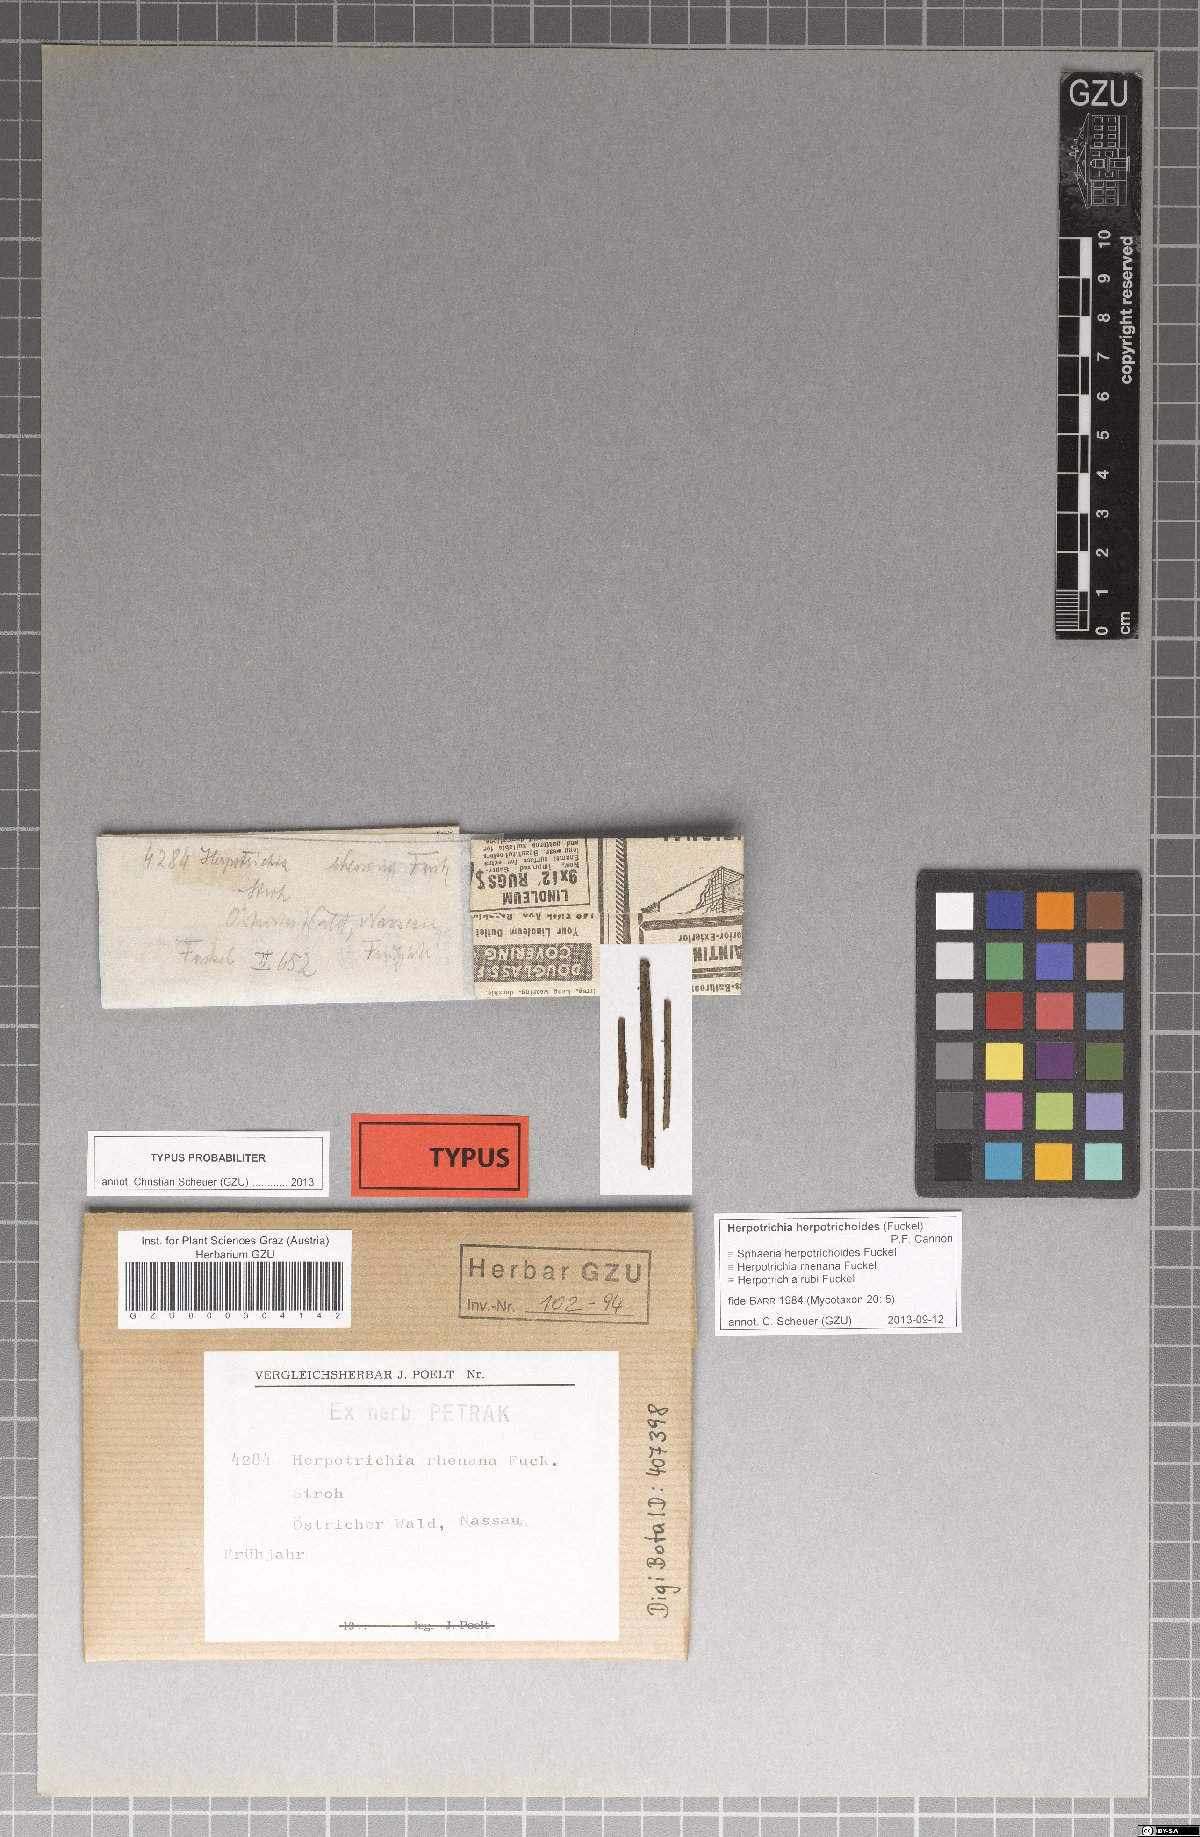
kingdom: Fungi
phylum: Ascomycota
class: Dothideomycetes
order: Pleosporales
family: Melanommataceae
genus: Herpotrichia
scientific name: Herpotrichia rhenana
